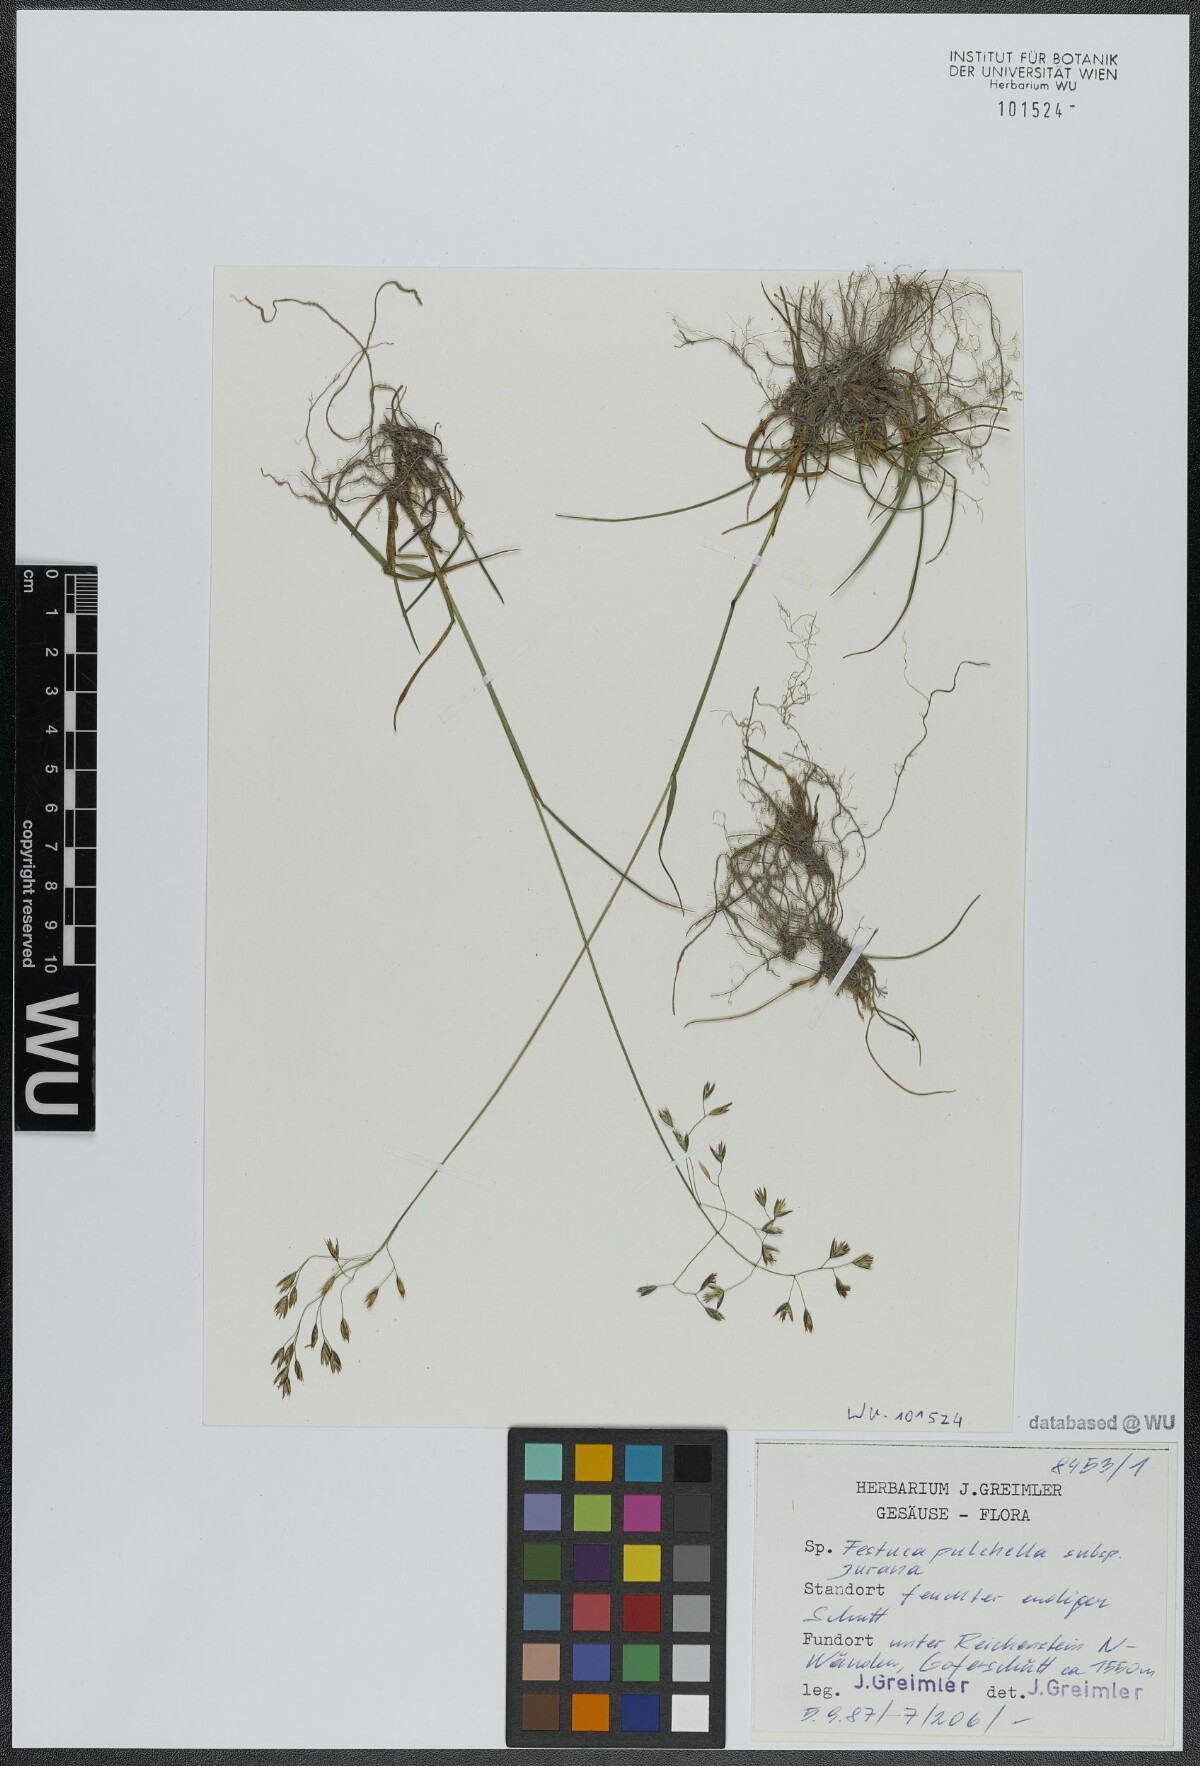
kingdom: Plantae
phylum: Tracheophyta
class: Liliopsida
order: Poales
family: Poaceae
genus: Festuca
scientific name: Festuca pulchella
